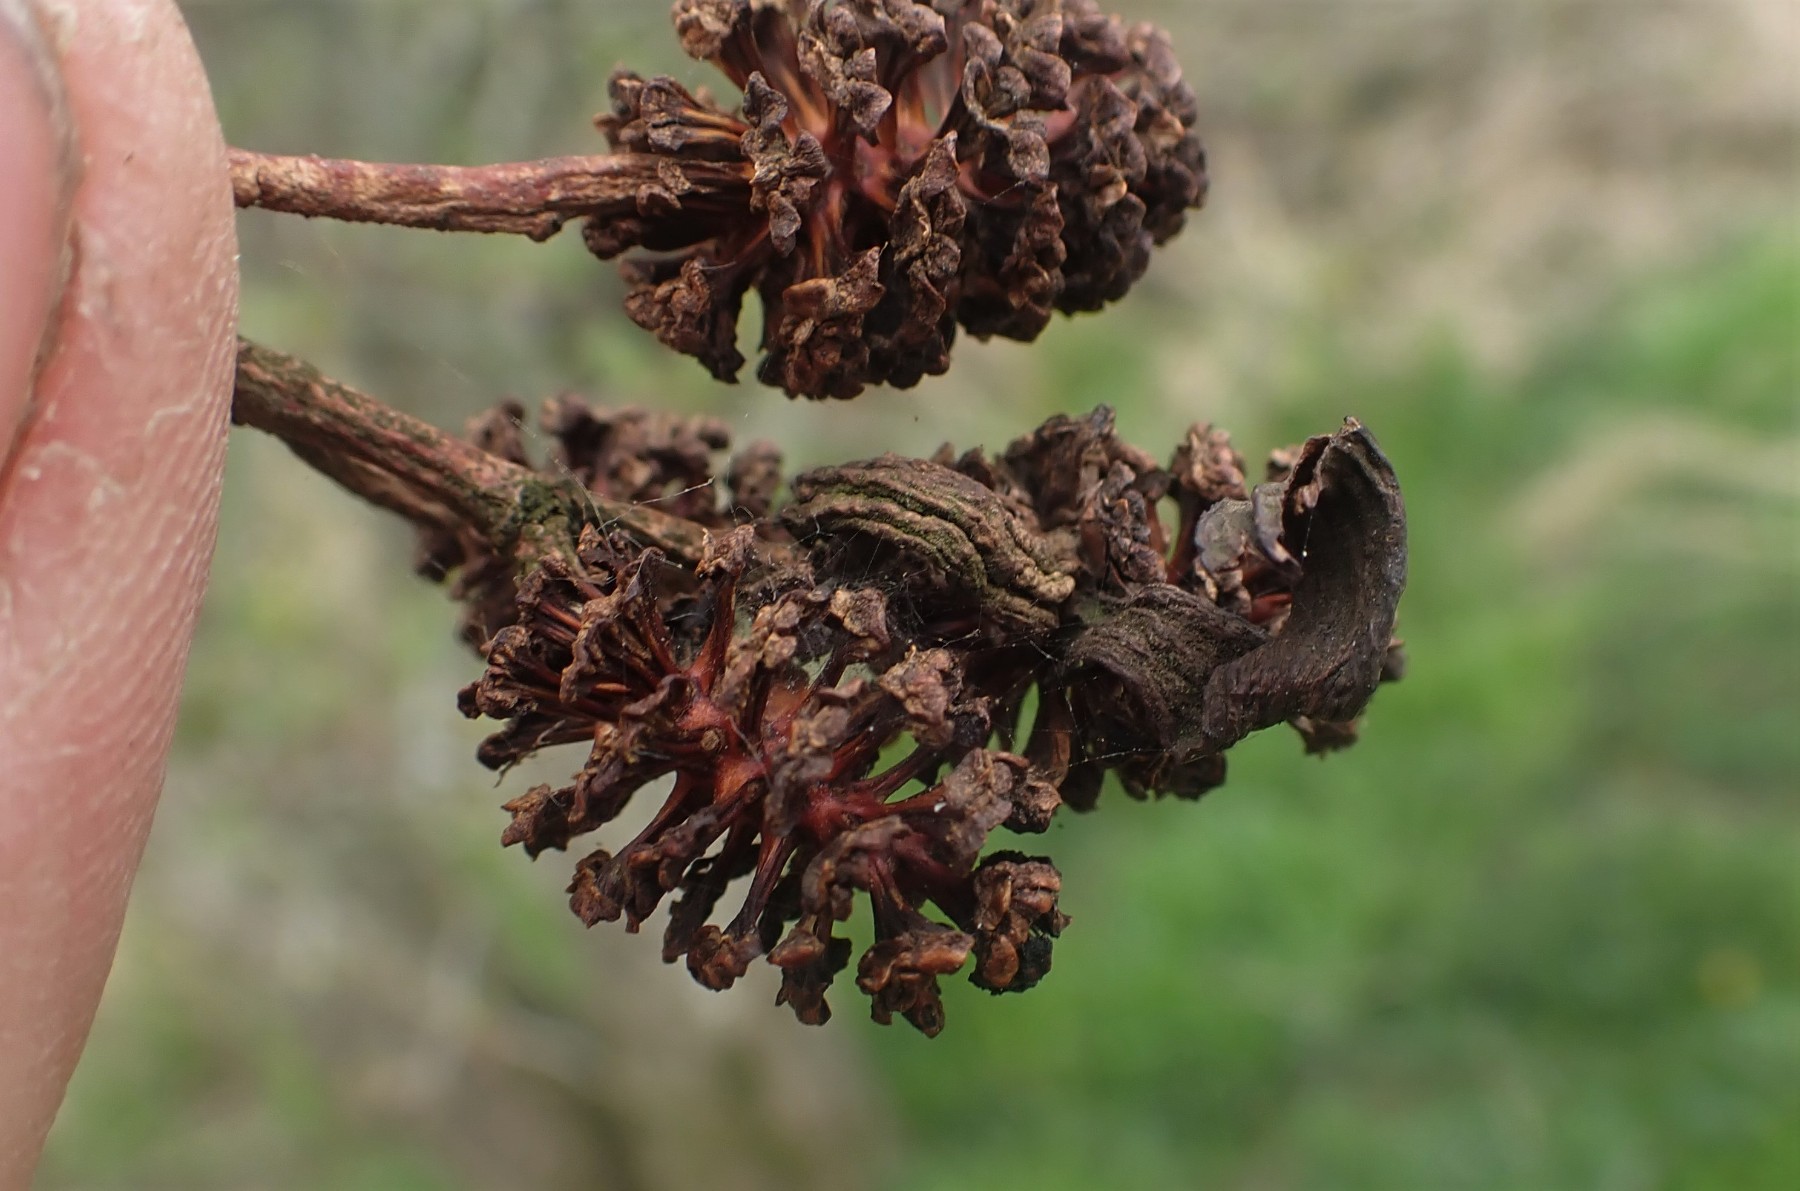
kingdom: Fungi
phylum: Ascomycota
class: Taphrinomycetes
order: Taphrinales
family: Taphrinaceae
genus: Taphrina
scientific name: Taphrina alni
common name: Alder tongue
